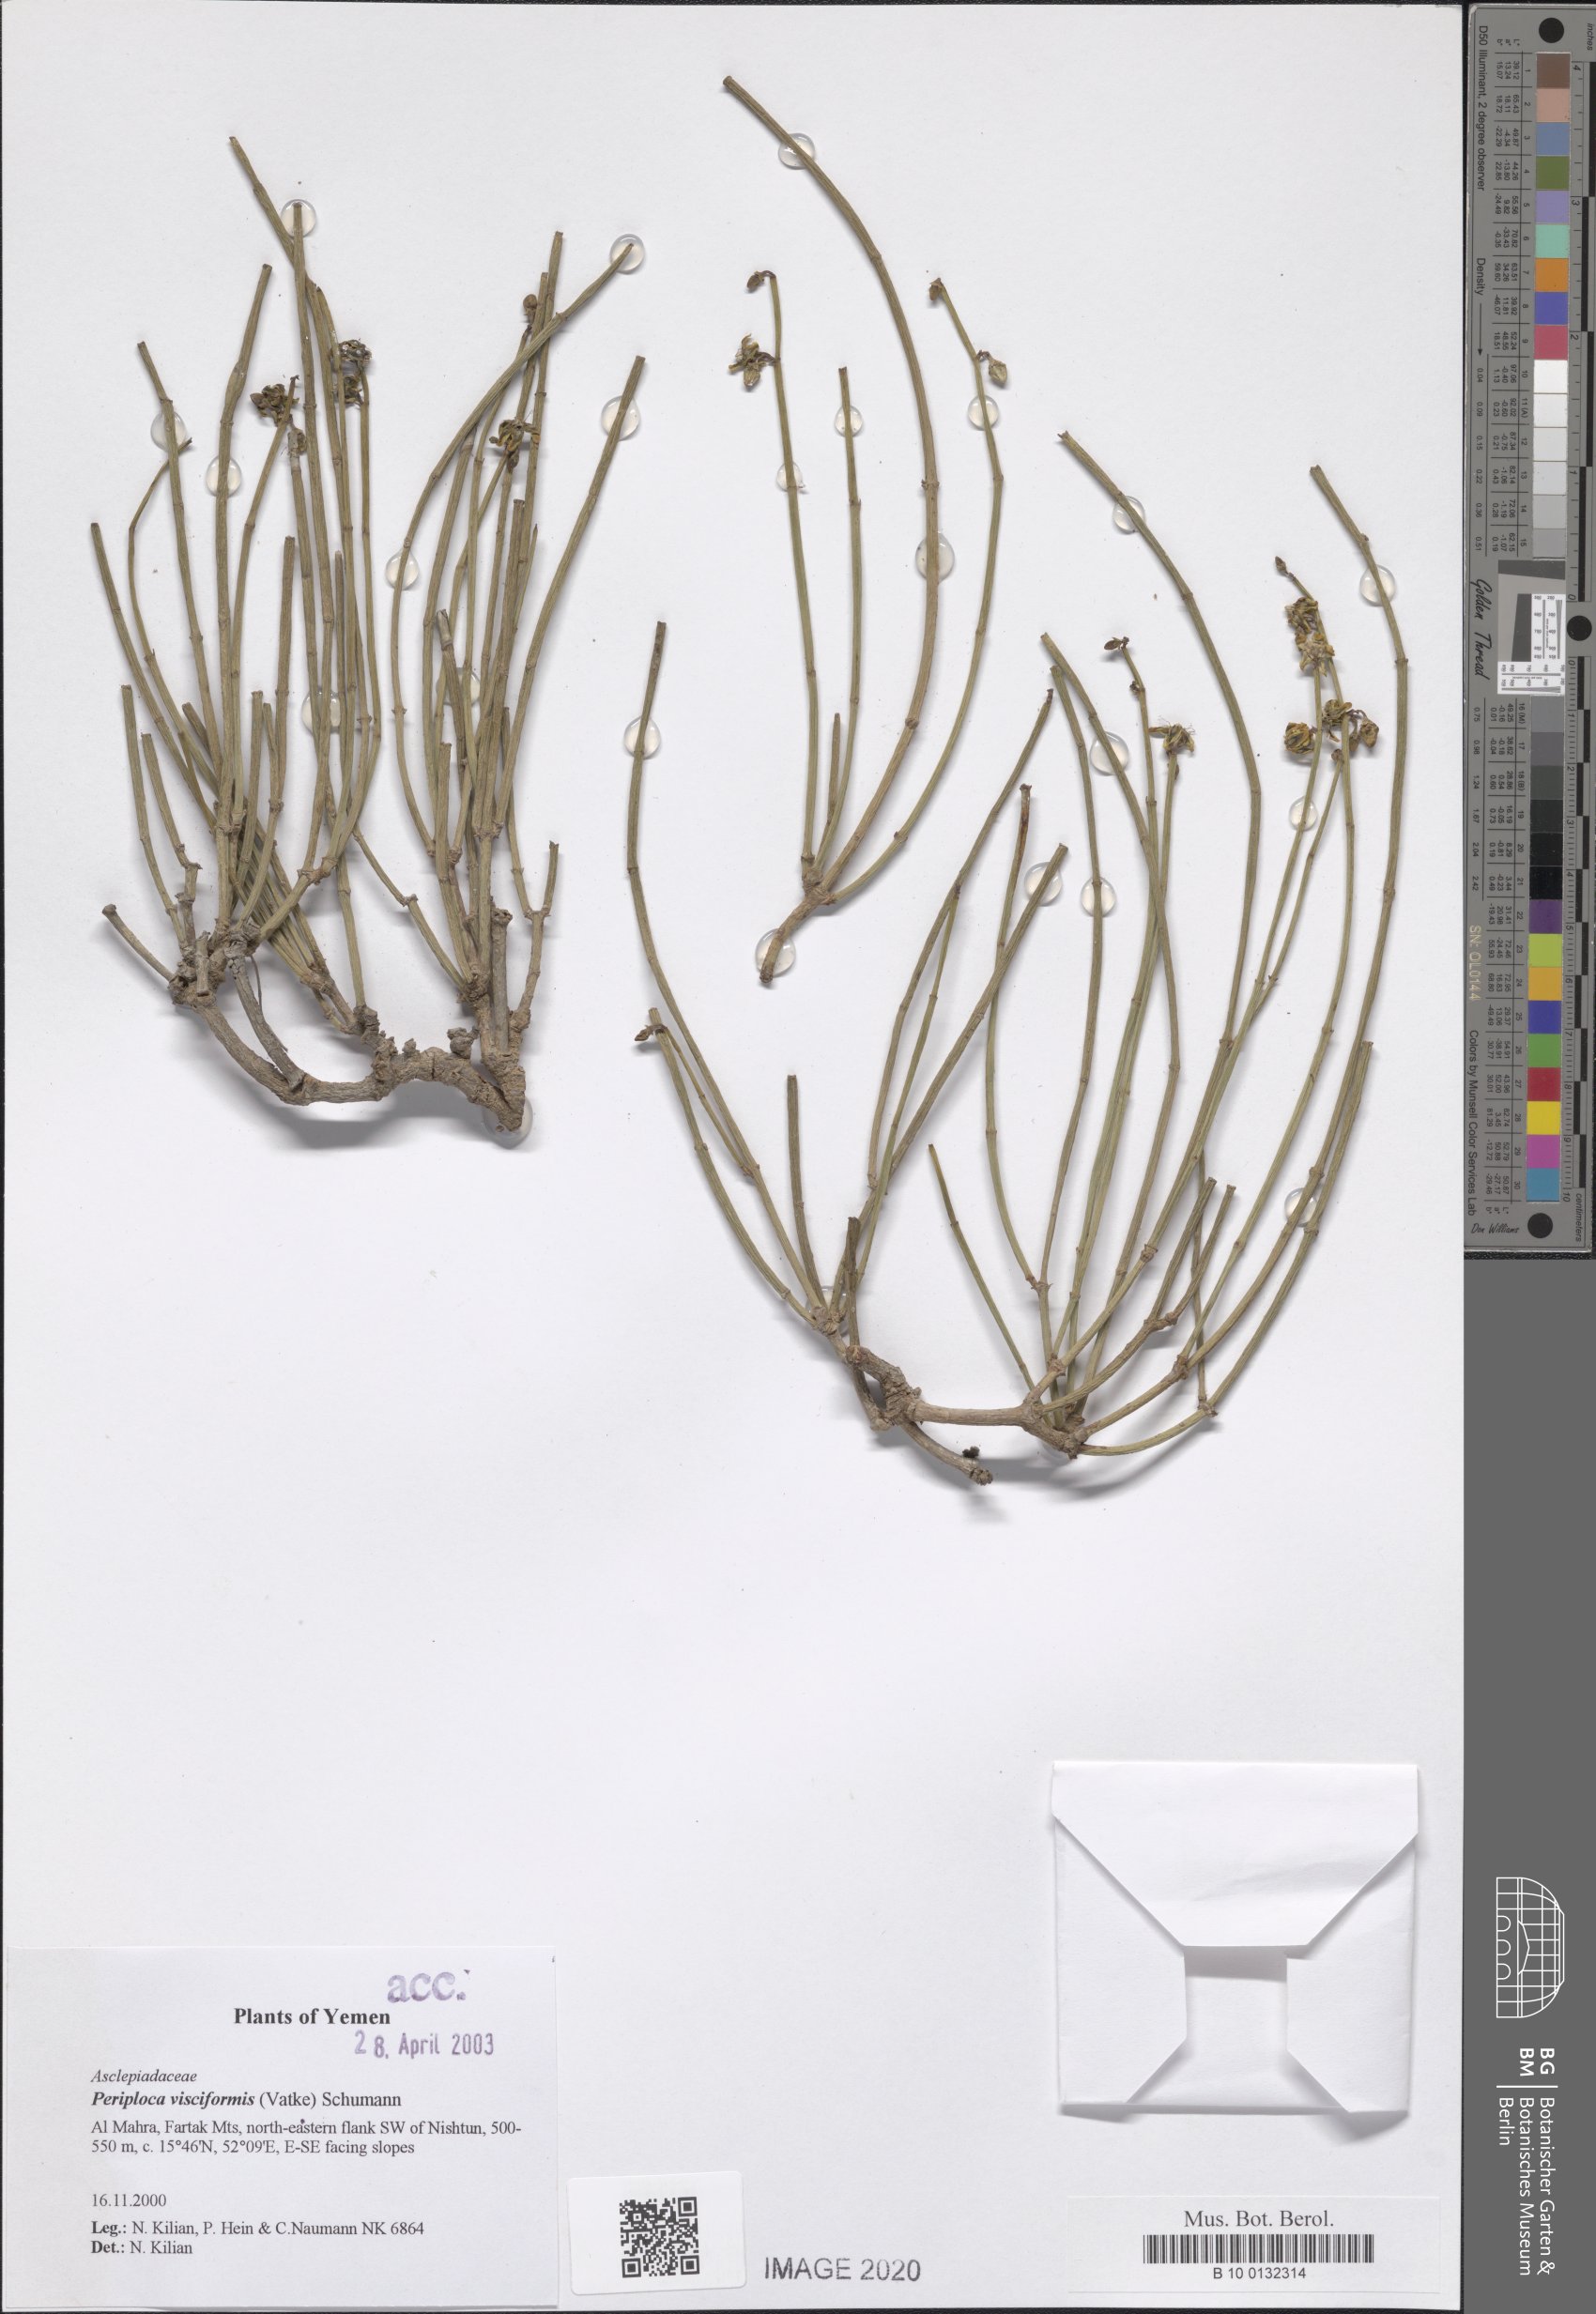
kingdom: Plantae
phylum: Tracheophyta
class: Magnoliopsida
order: Gentianales
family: Apocynaceae
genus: Periploca
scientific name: Periploca visciformis
